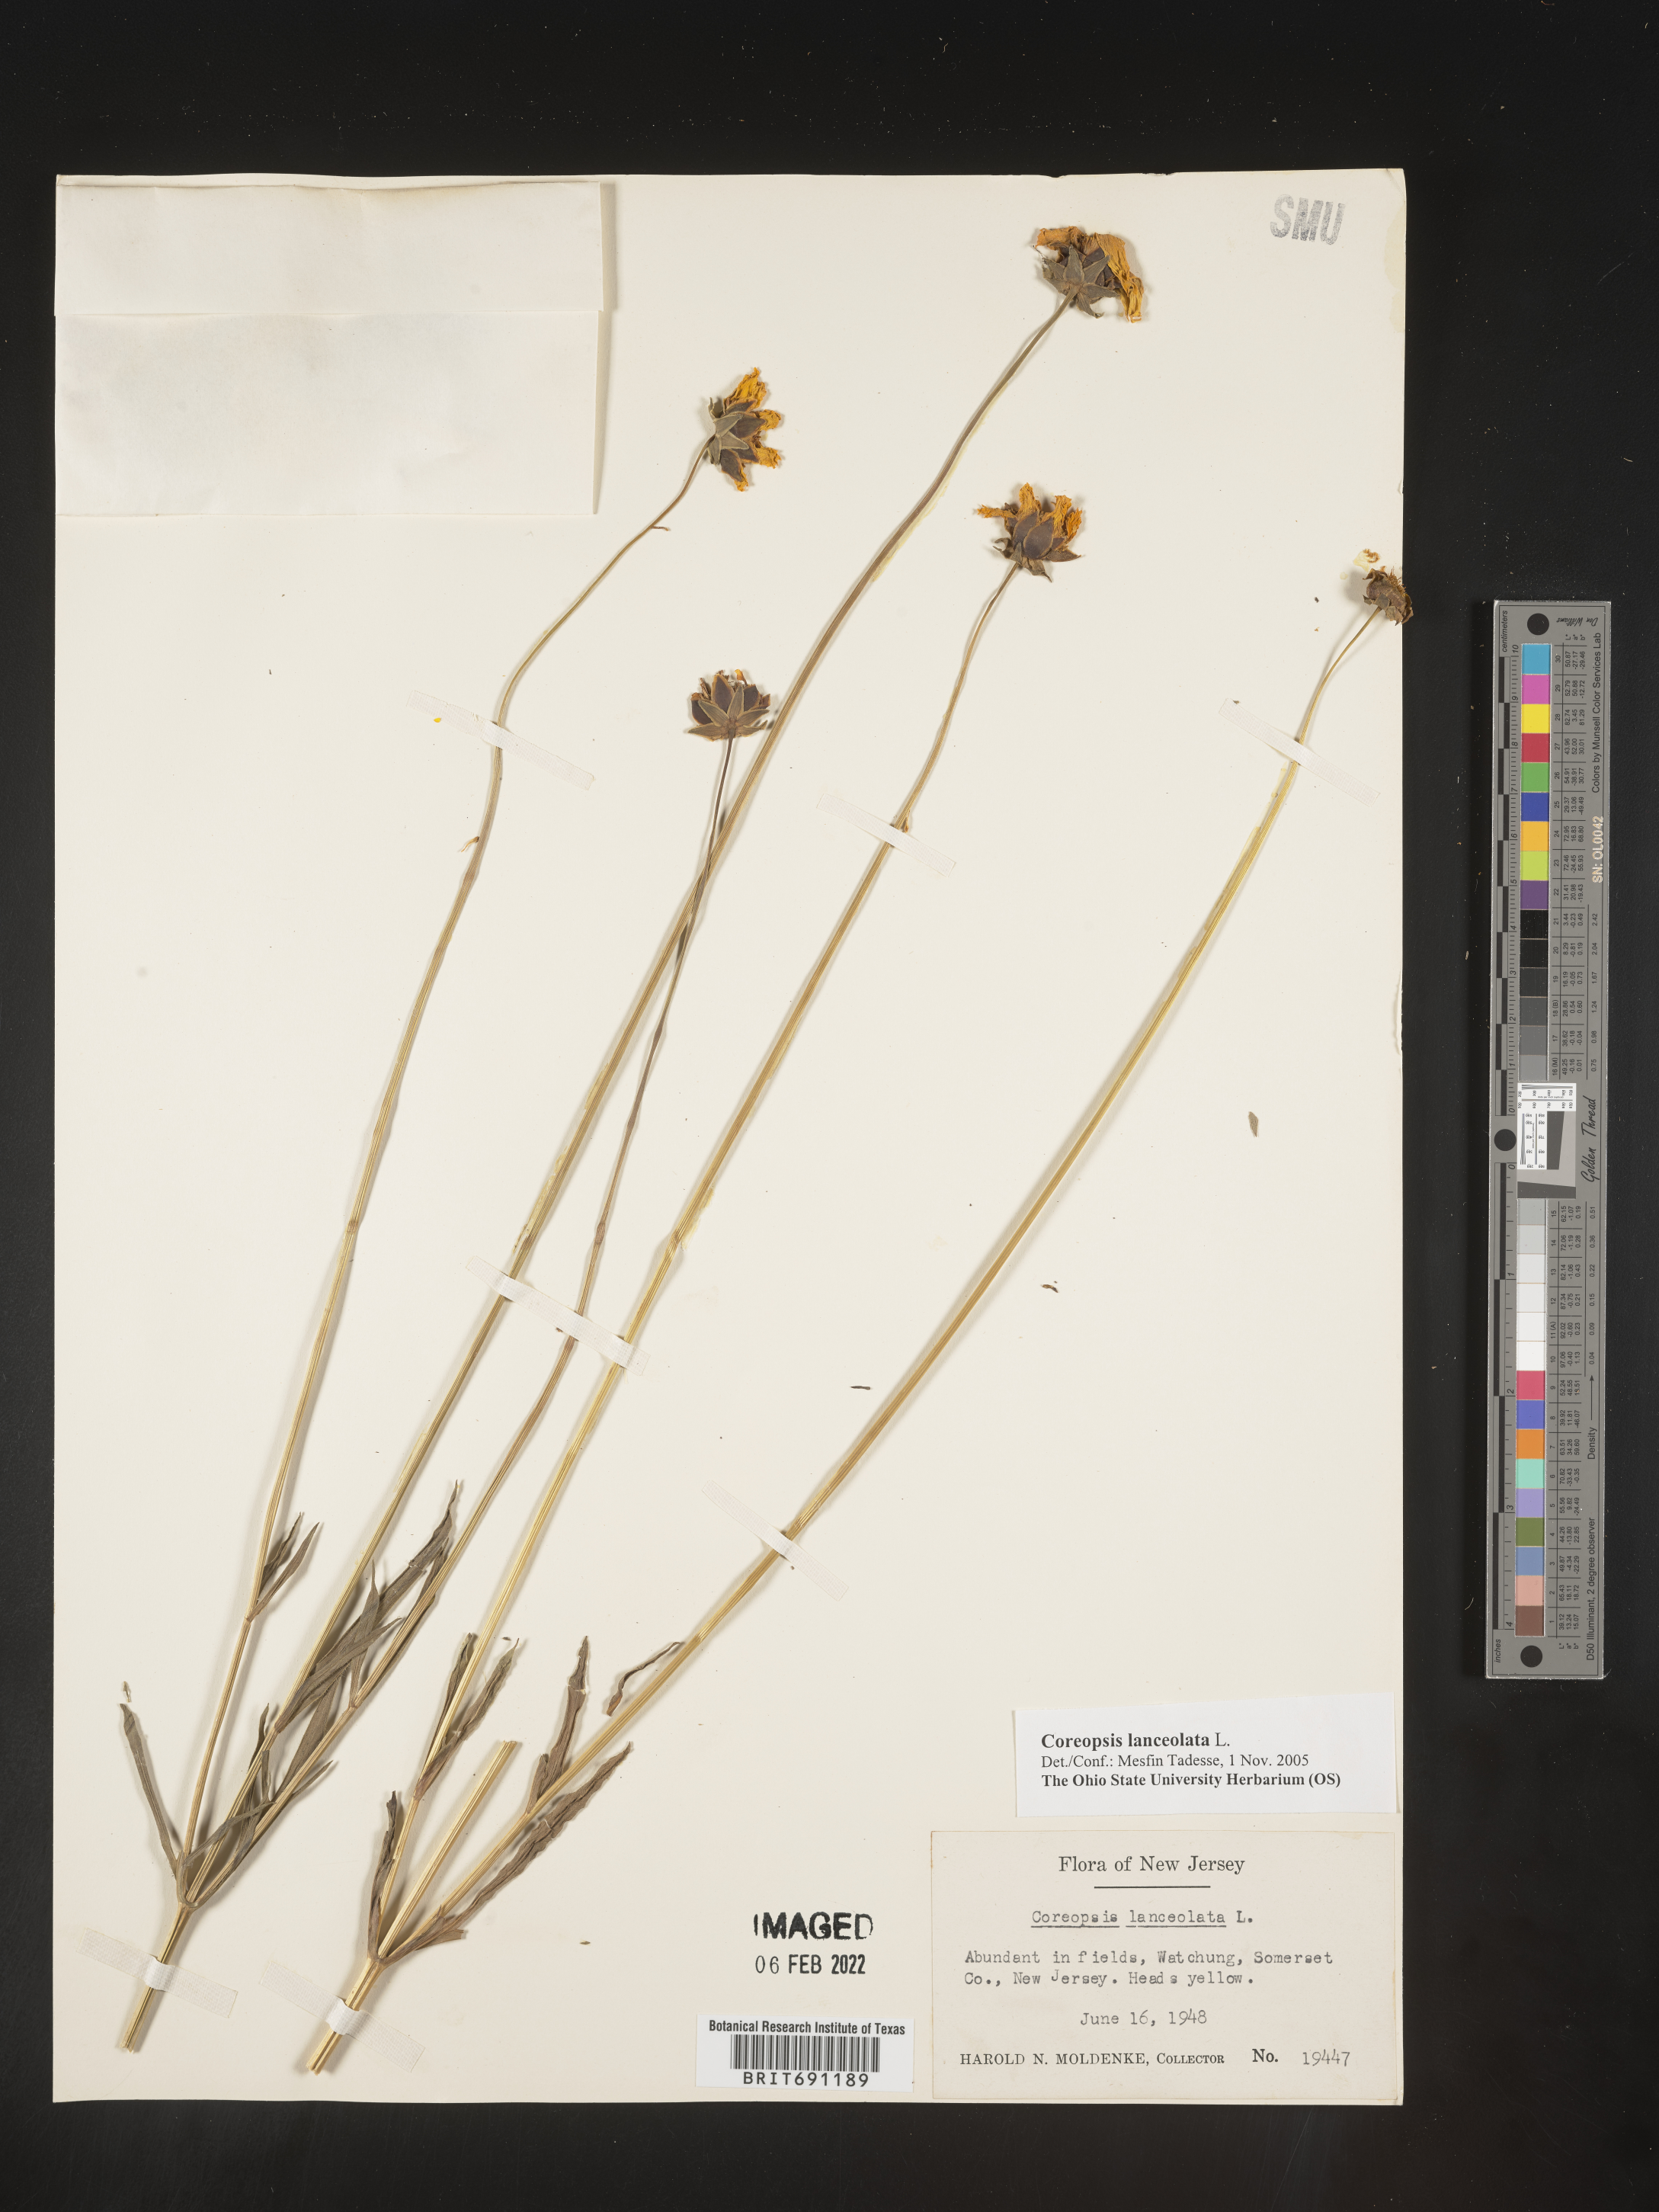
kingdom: Plantae
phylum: Tracheophyta
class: Magnoliopsida
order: Asterales
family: Asteraceae
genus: Coreopsis
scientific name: Coreopsis lanceolata
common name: Garden coreopsis
